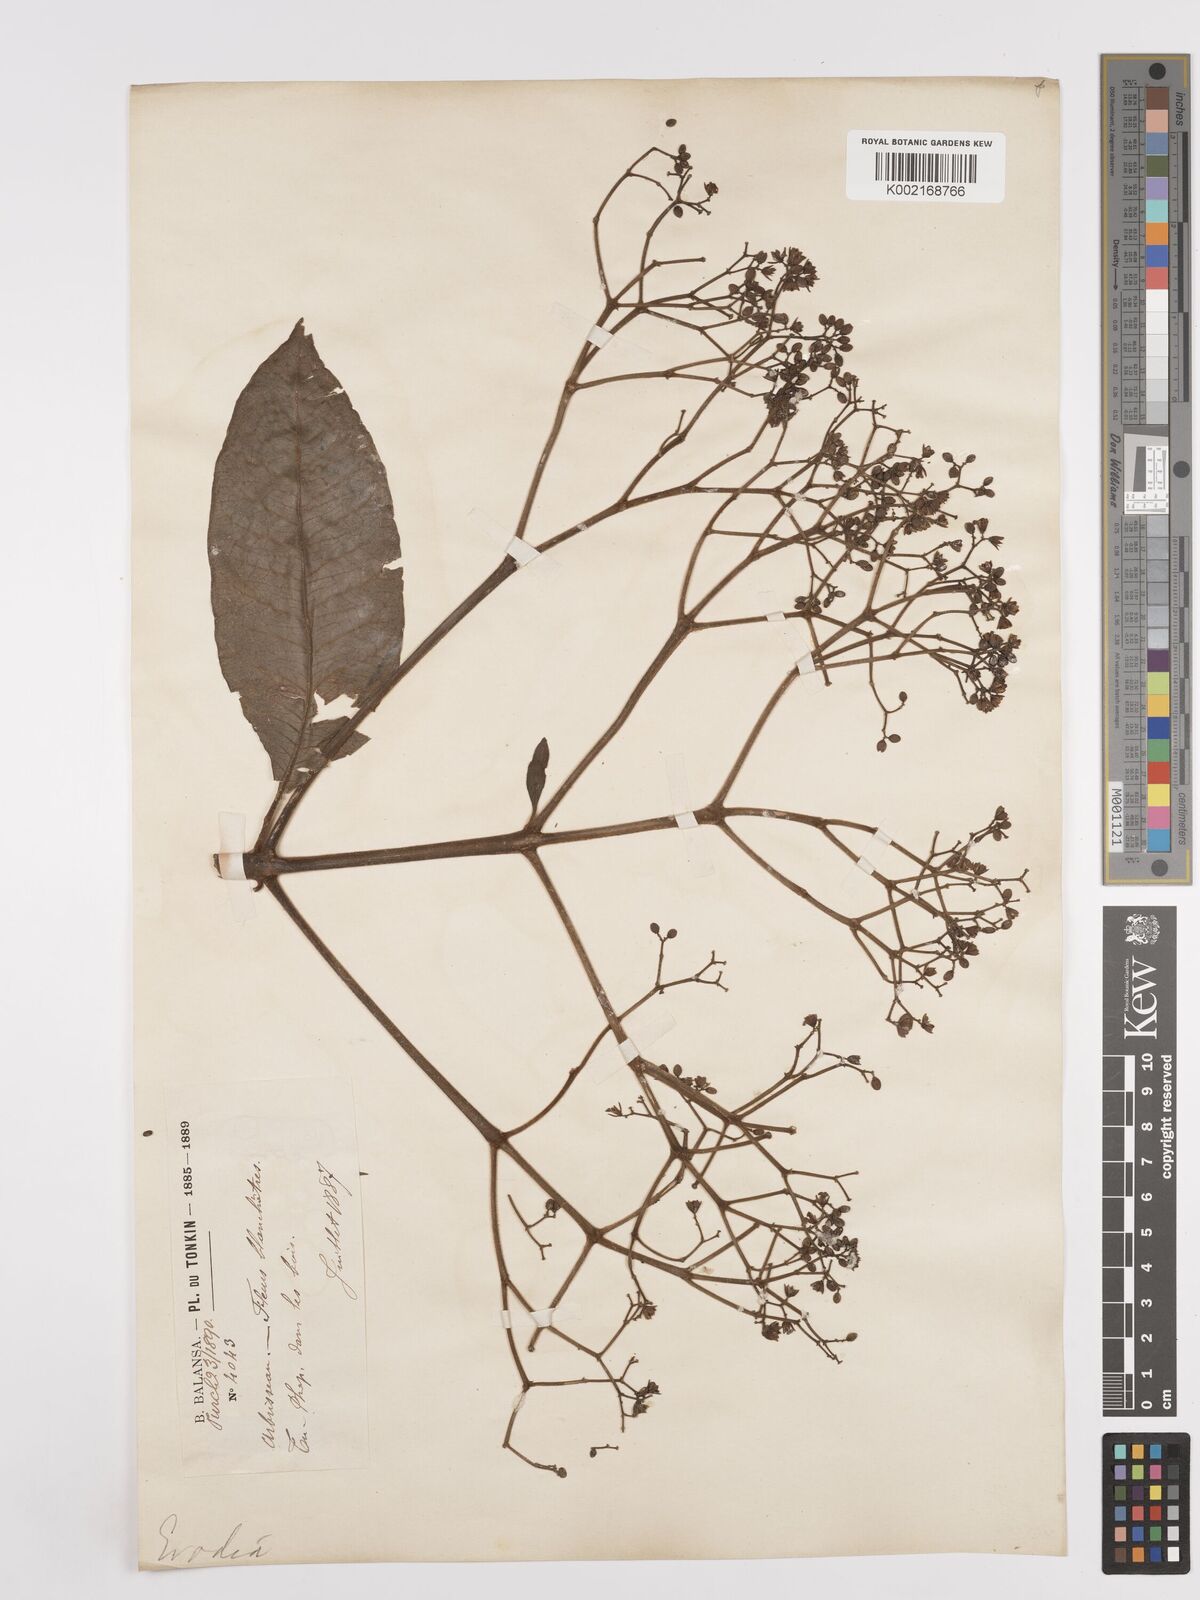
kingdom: Plantae
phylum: Tracheophyta
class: Magnoliopsida
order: Sapindales
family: Rutaceae
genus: Euodia
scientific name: Euodia
